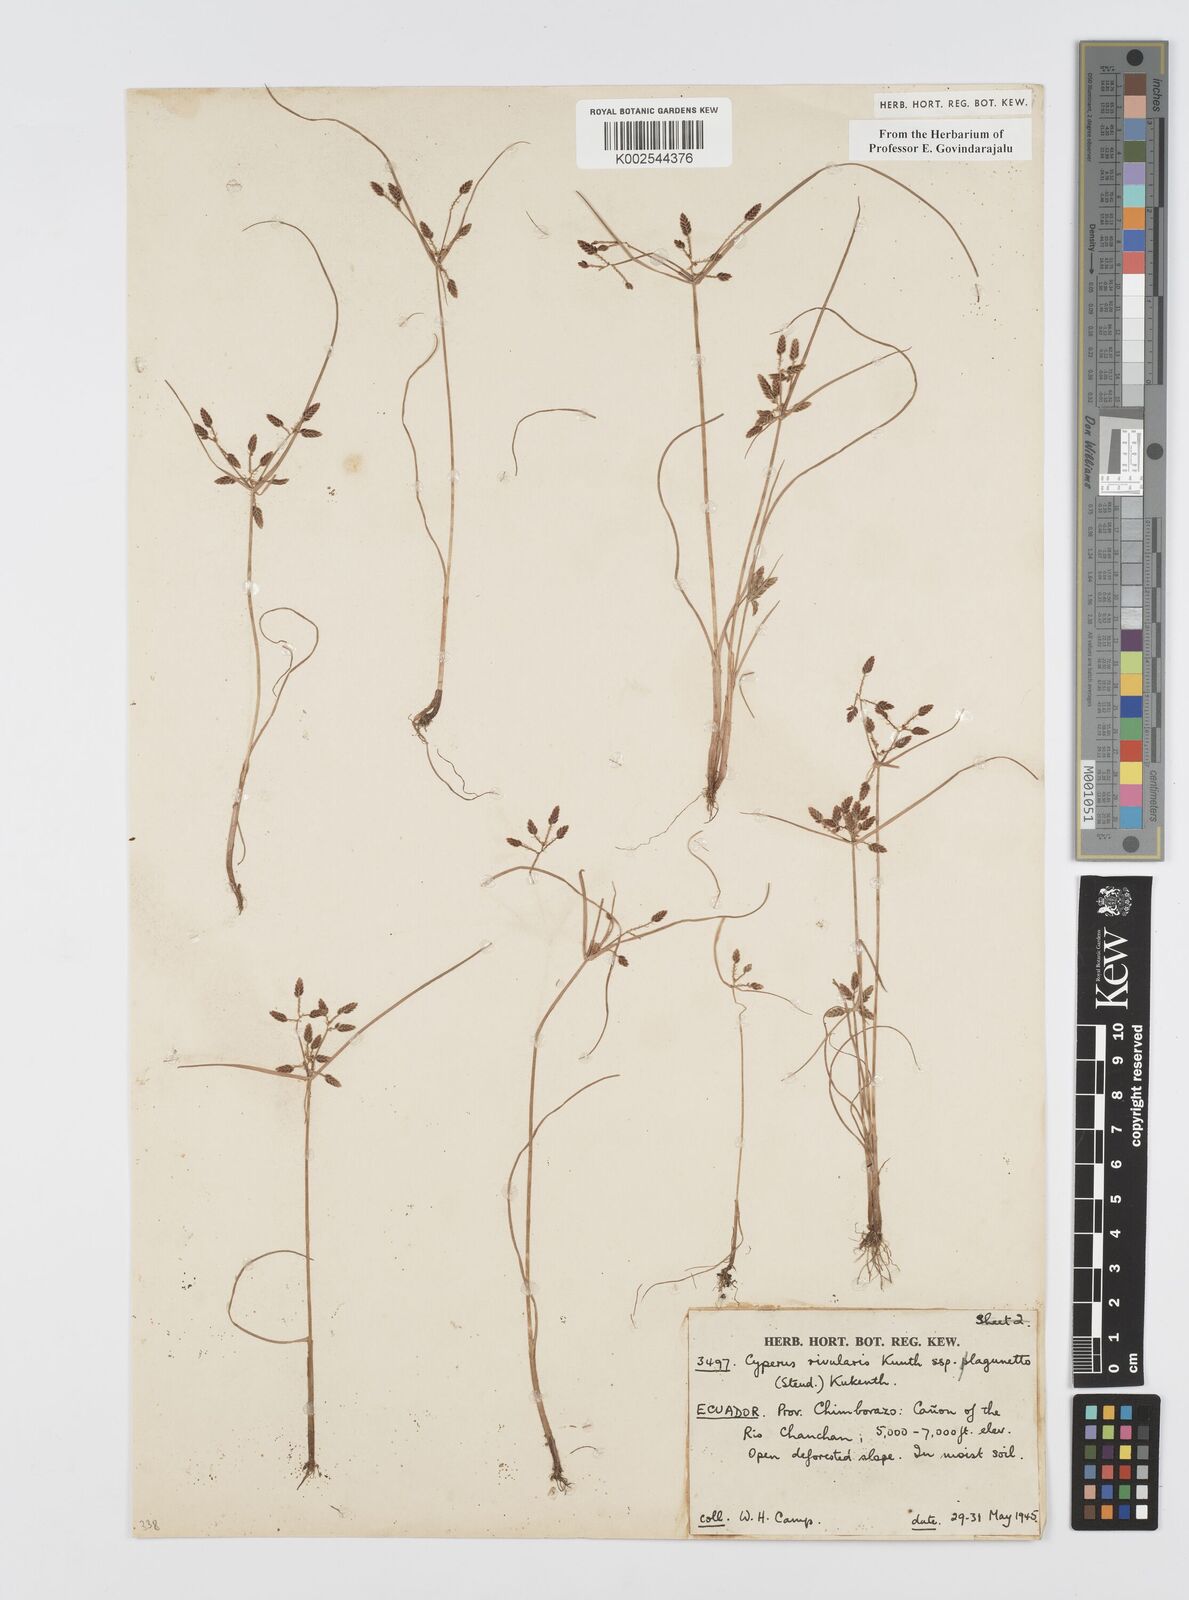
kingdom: Plantae
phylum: Tracheophyta
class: Liliopsida
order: Poales
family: Cyperaceae
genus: Cyperus
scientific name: Cyperus bipartitus
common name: Brook flatsedge
